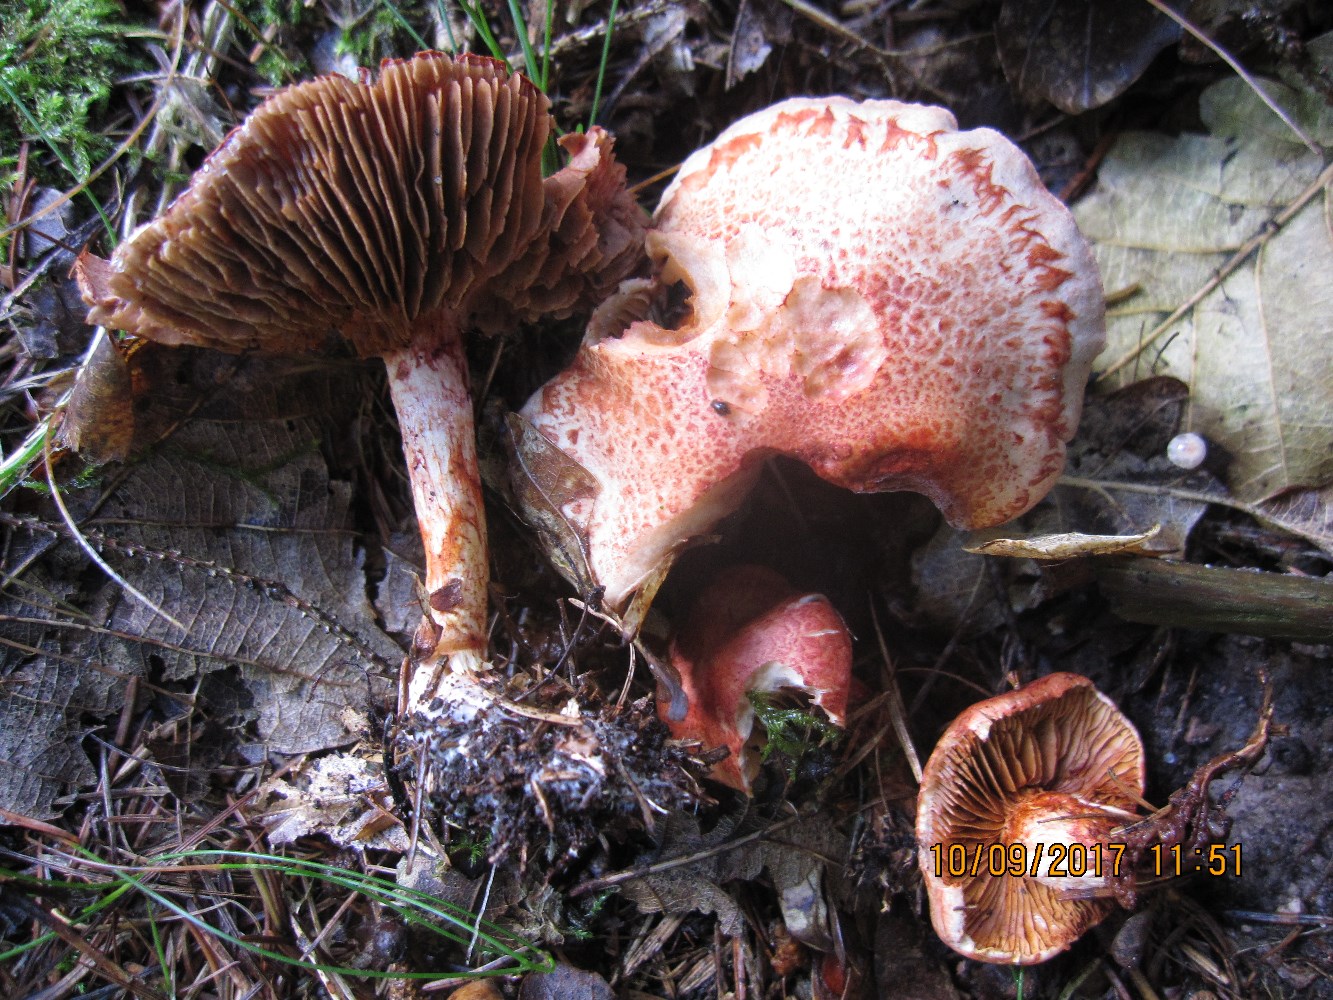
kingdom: Fungi
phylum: Basidiomycota
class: Agaricomycetes
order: Agaricales
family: Cortinariaceae
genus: Cortinarius
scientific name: Cortinarius bolaris
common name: cinnoberskællet slørhat
